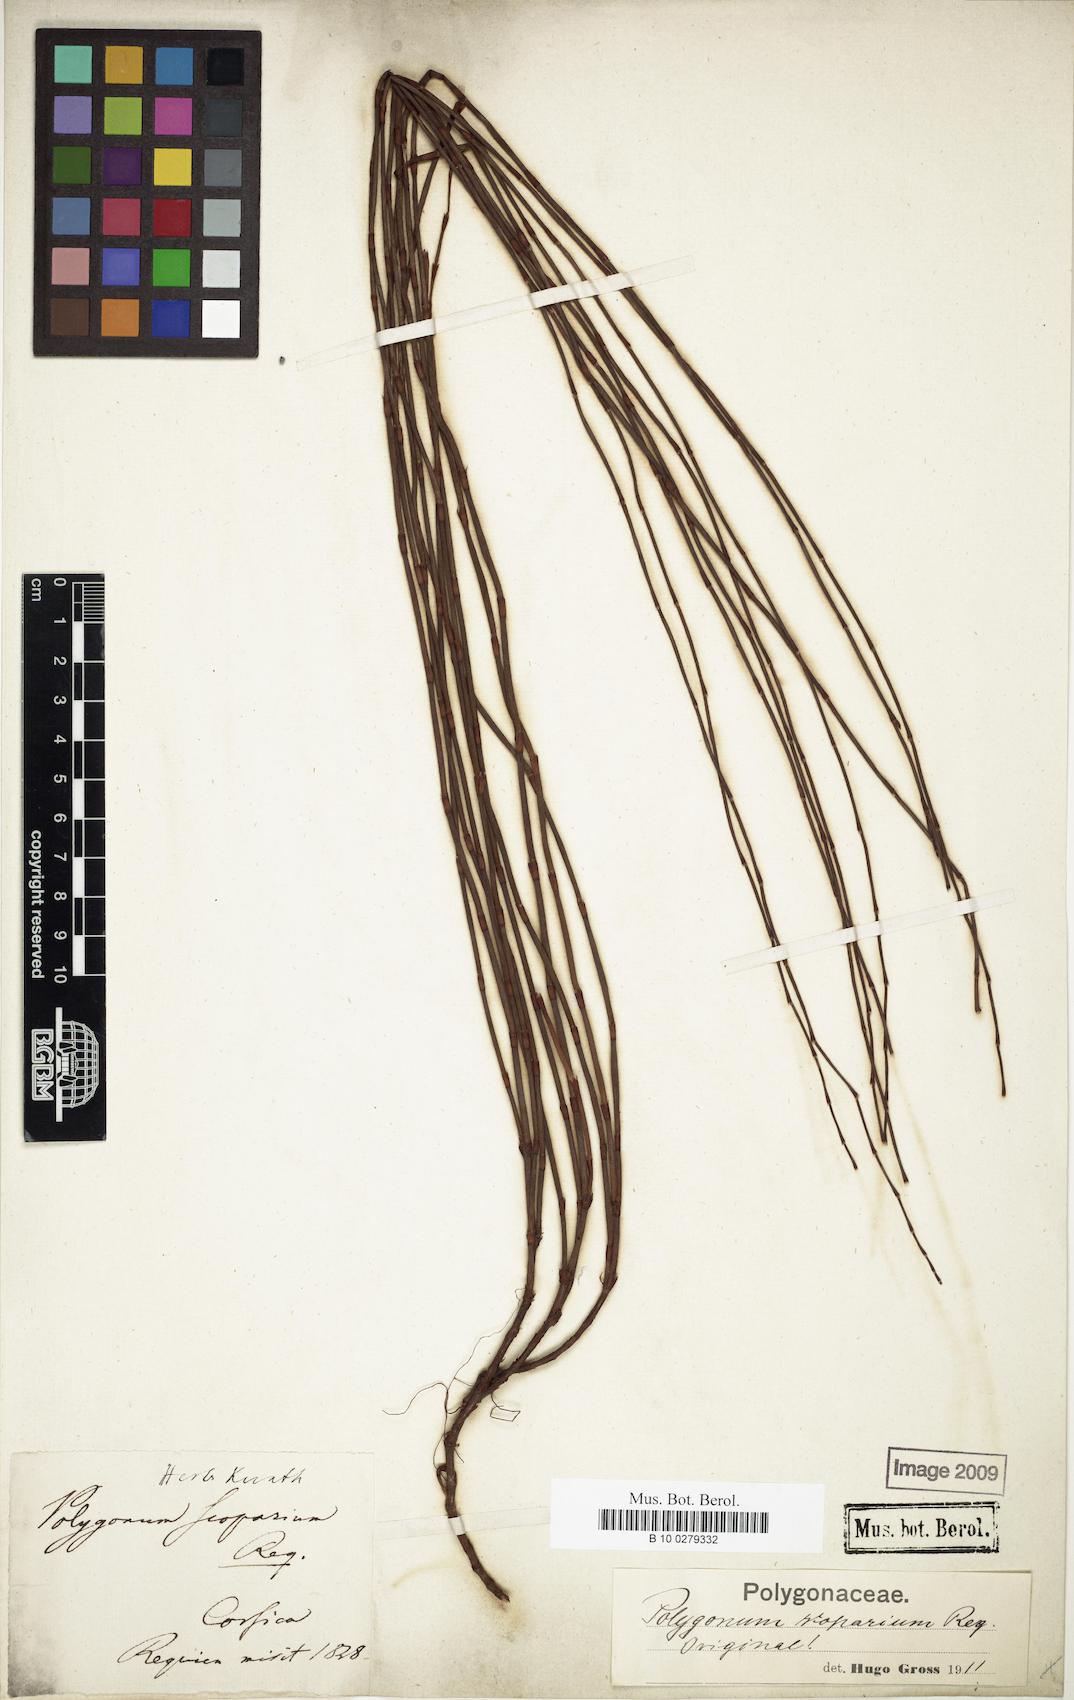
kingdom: Plantae
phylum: Tracheophyta
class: Magnoliopsida
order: Caryophyllales
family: Polygonaceae
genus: Polygonum
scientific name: Polygonum scoparium
